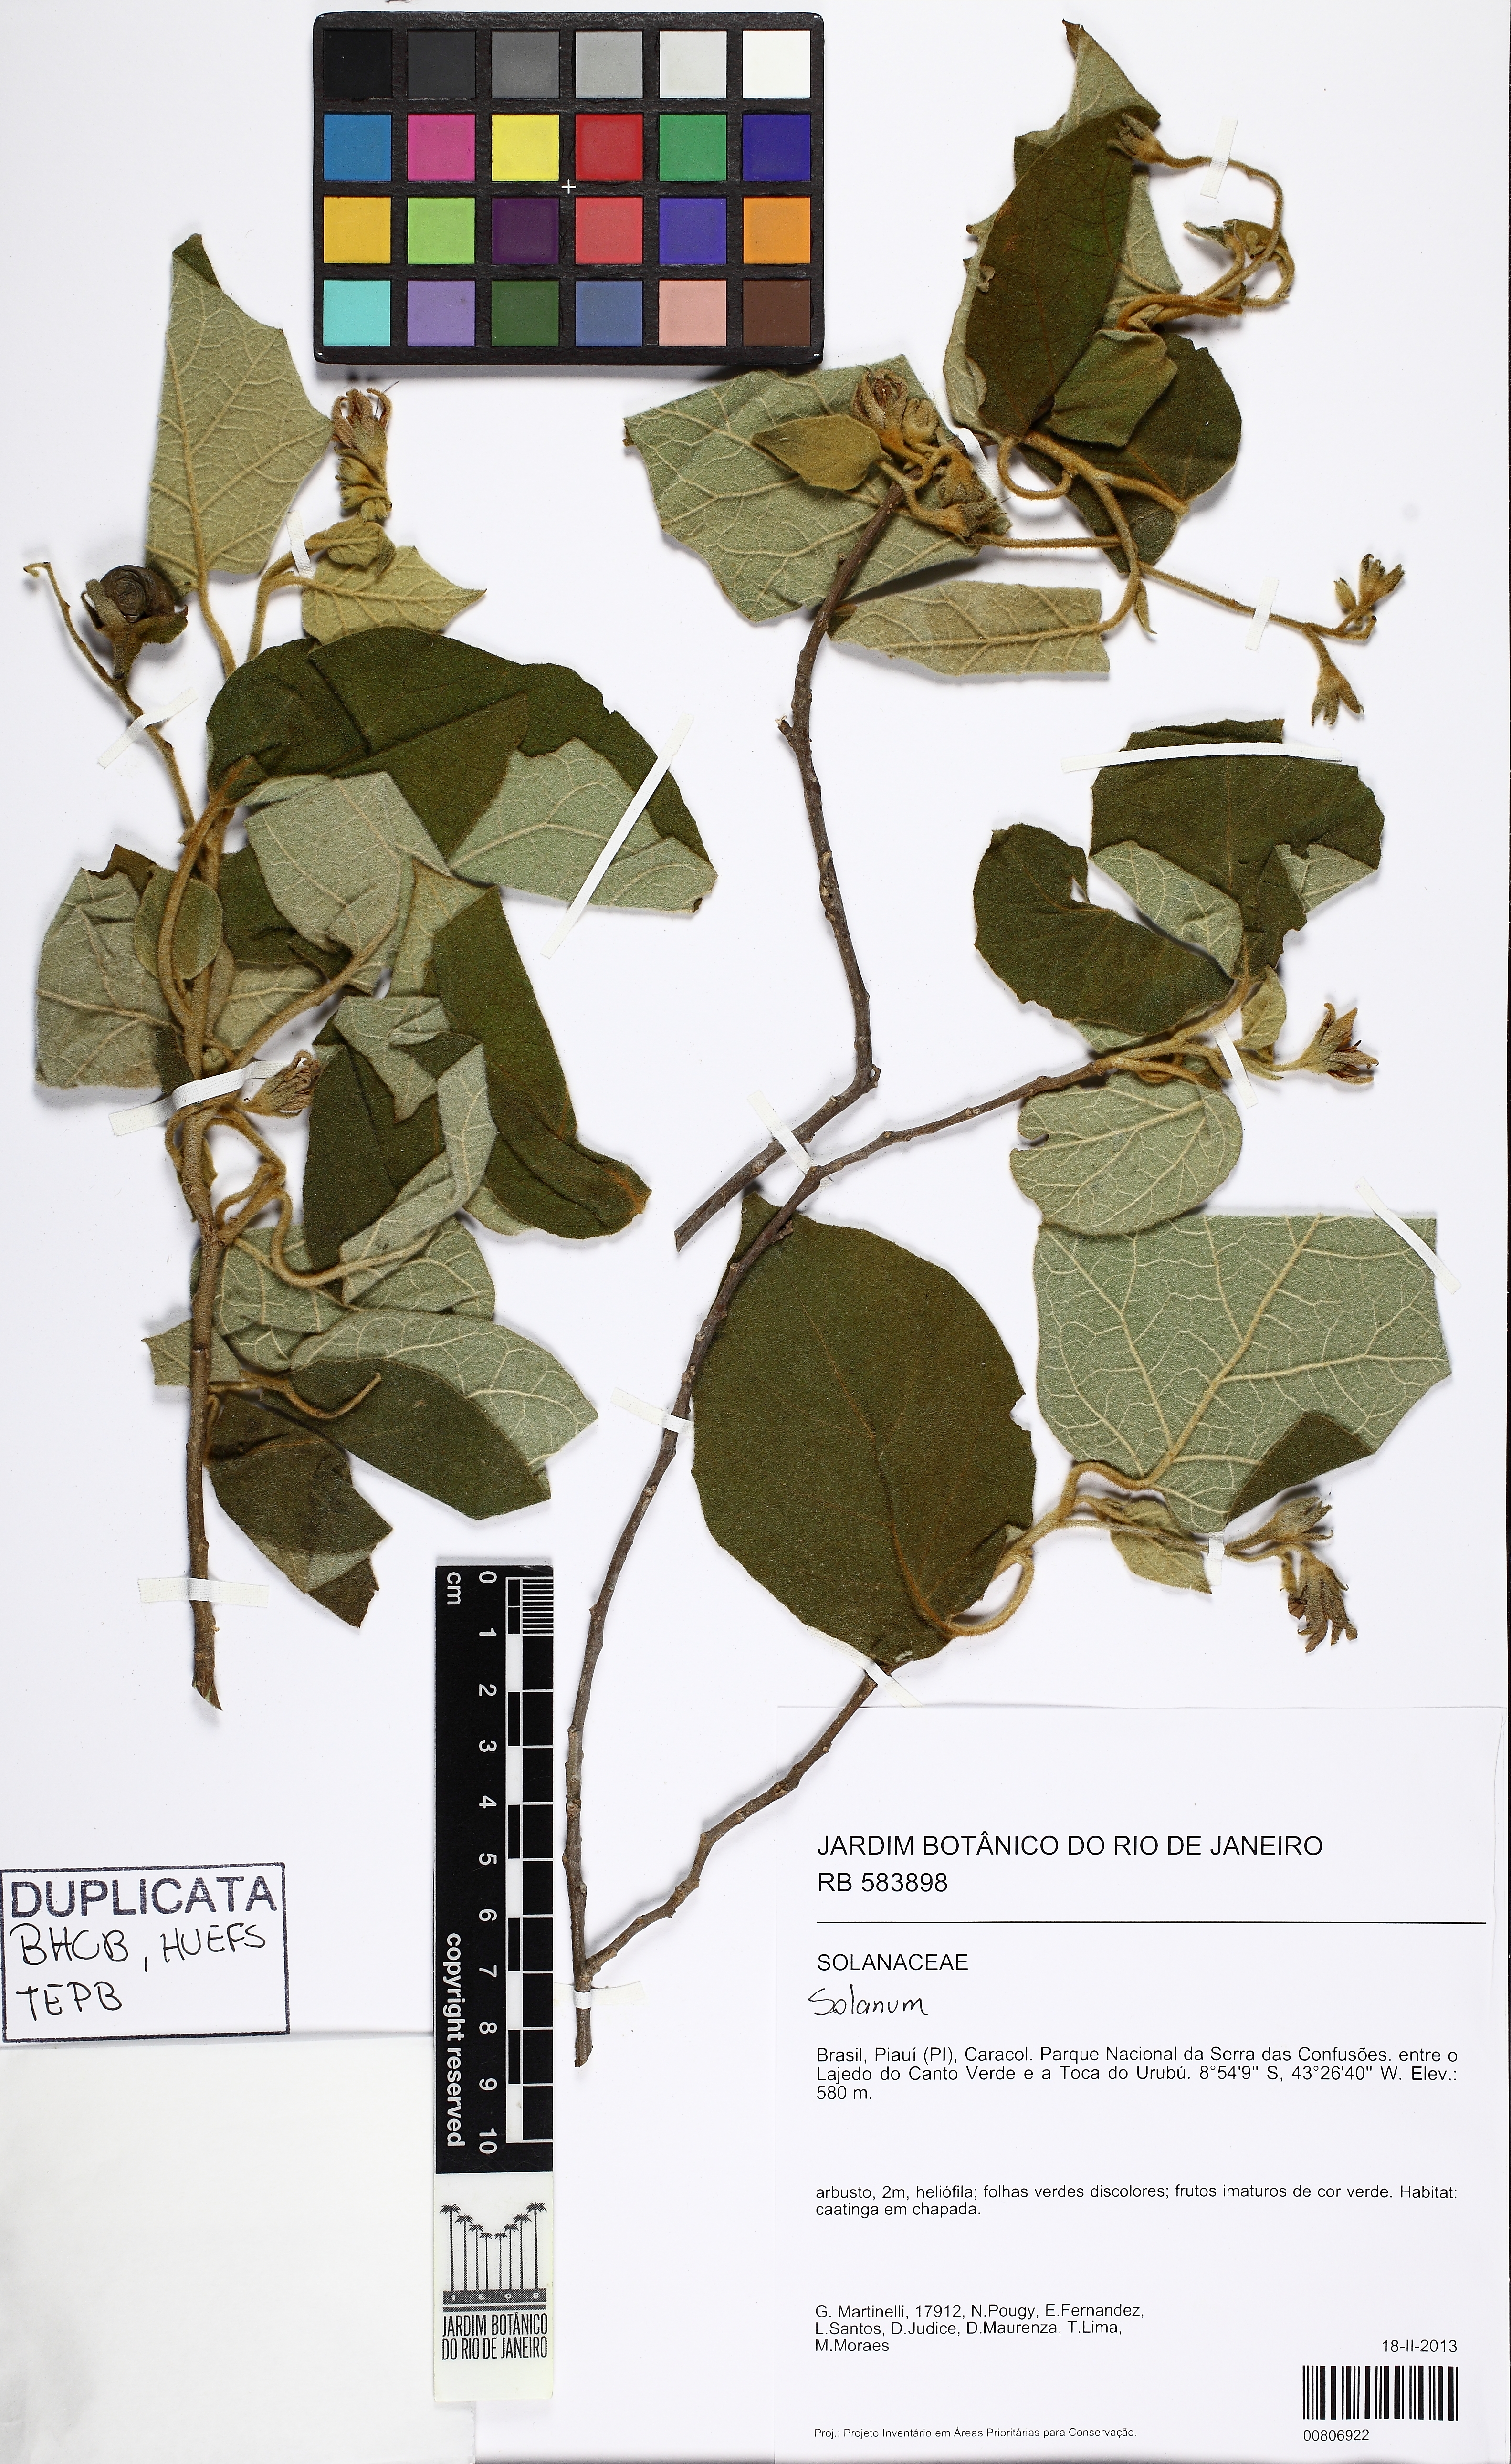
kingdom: Plantae
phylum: Tracheophyta
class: Magnoliopsida
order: Solanales
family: Solanaceae
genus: Solanum
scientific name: Solanum absconditum
